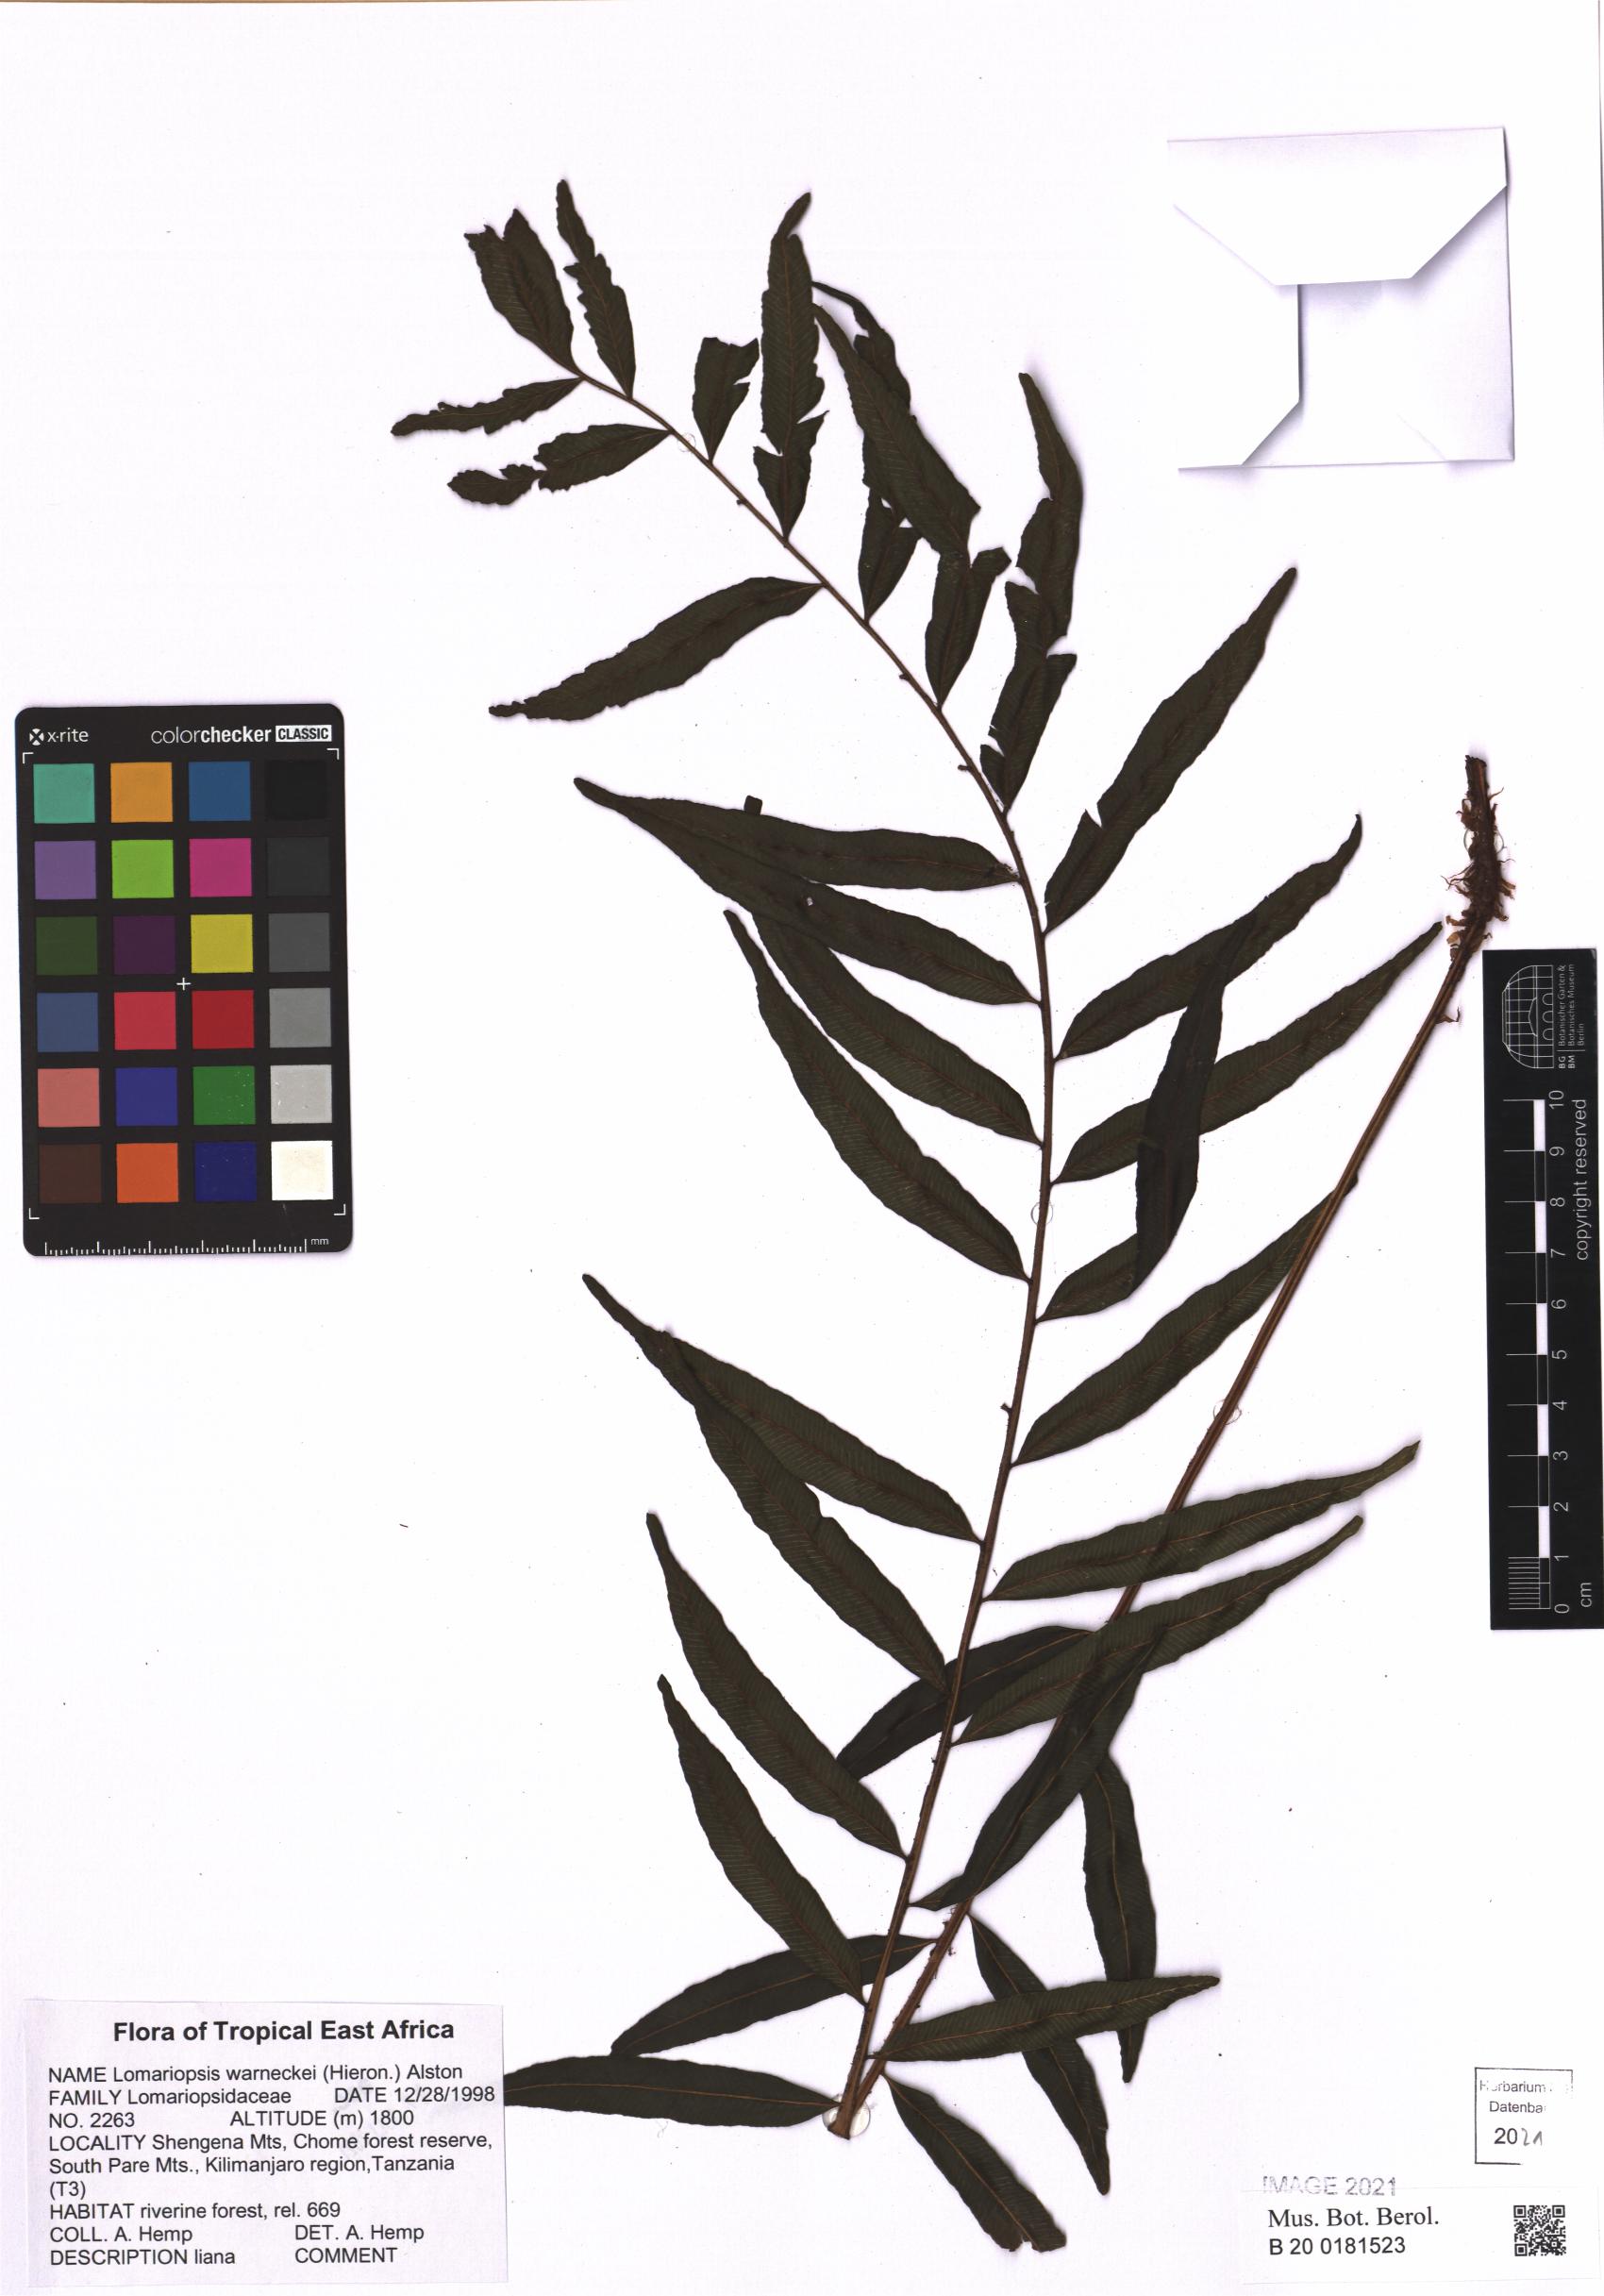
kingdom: Plantae
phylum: Tracheophyta
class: Polypodiopsida
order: Polypodiales
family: Lomariopsidaceae
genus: Lomariopsis
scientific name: Lomariopsis warneckei
